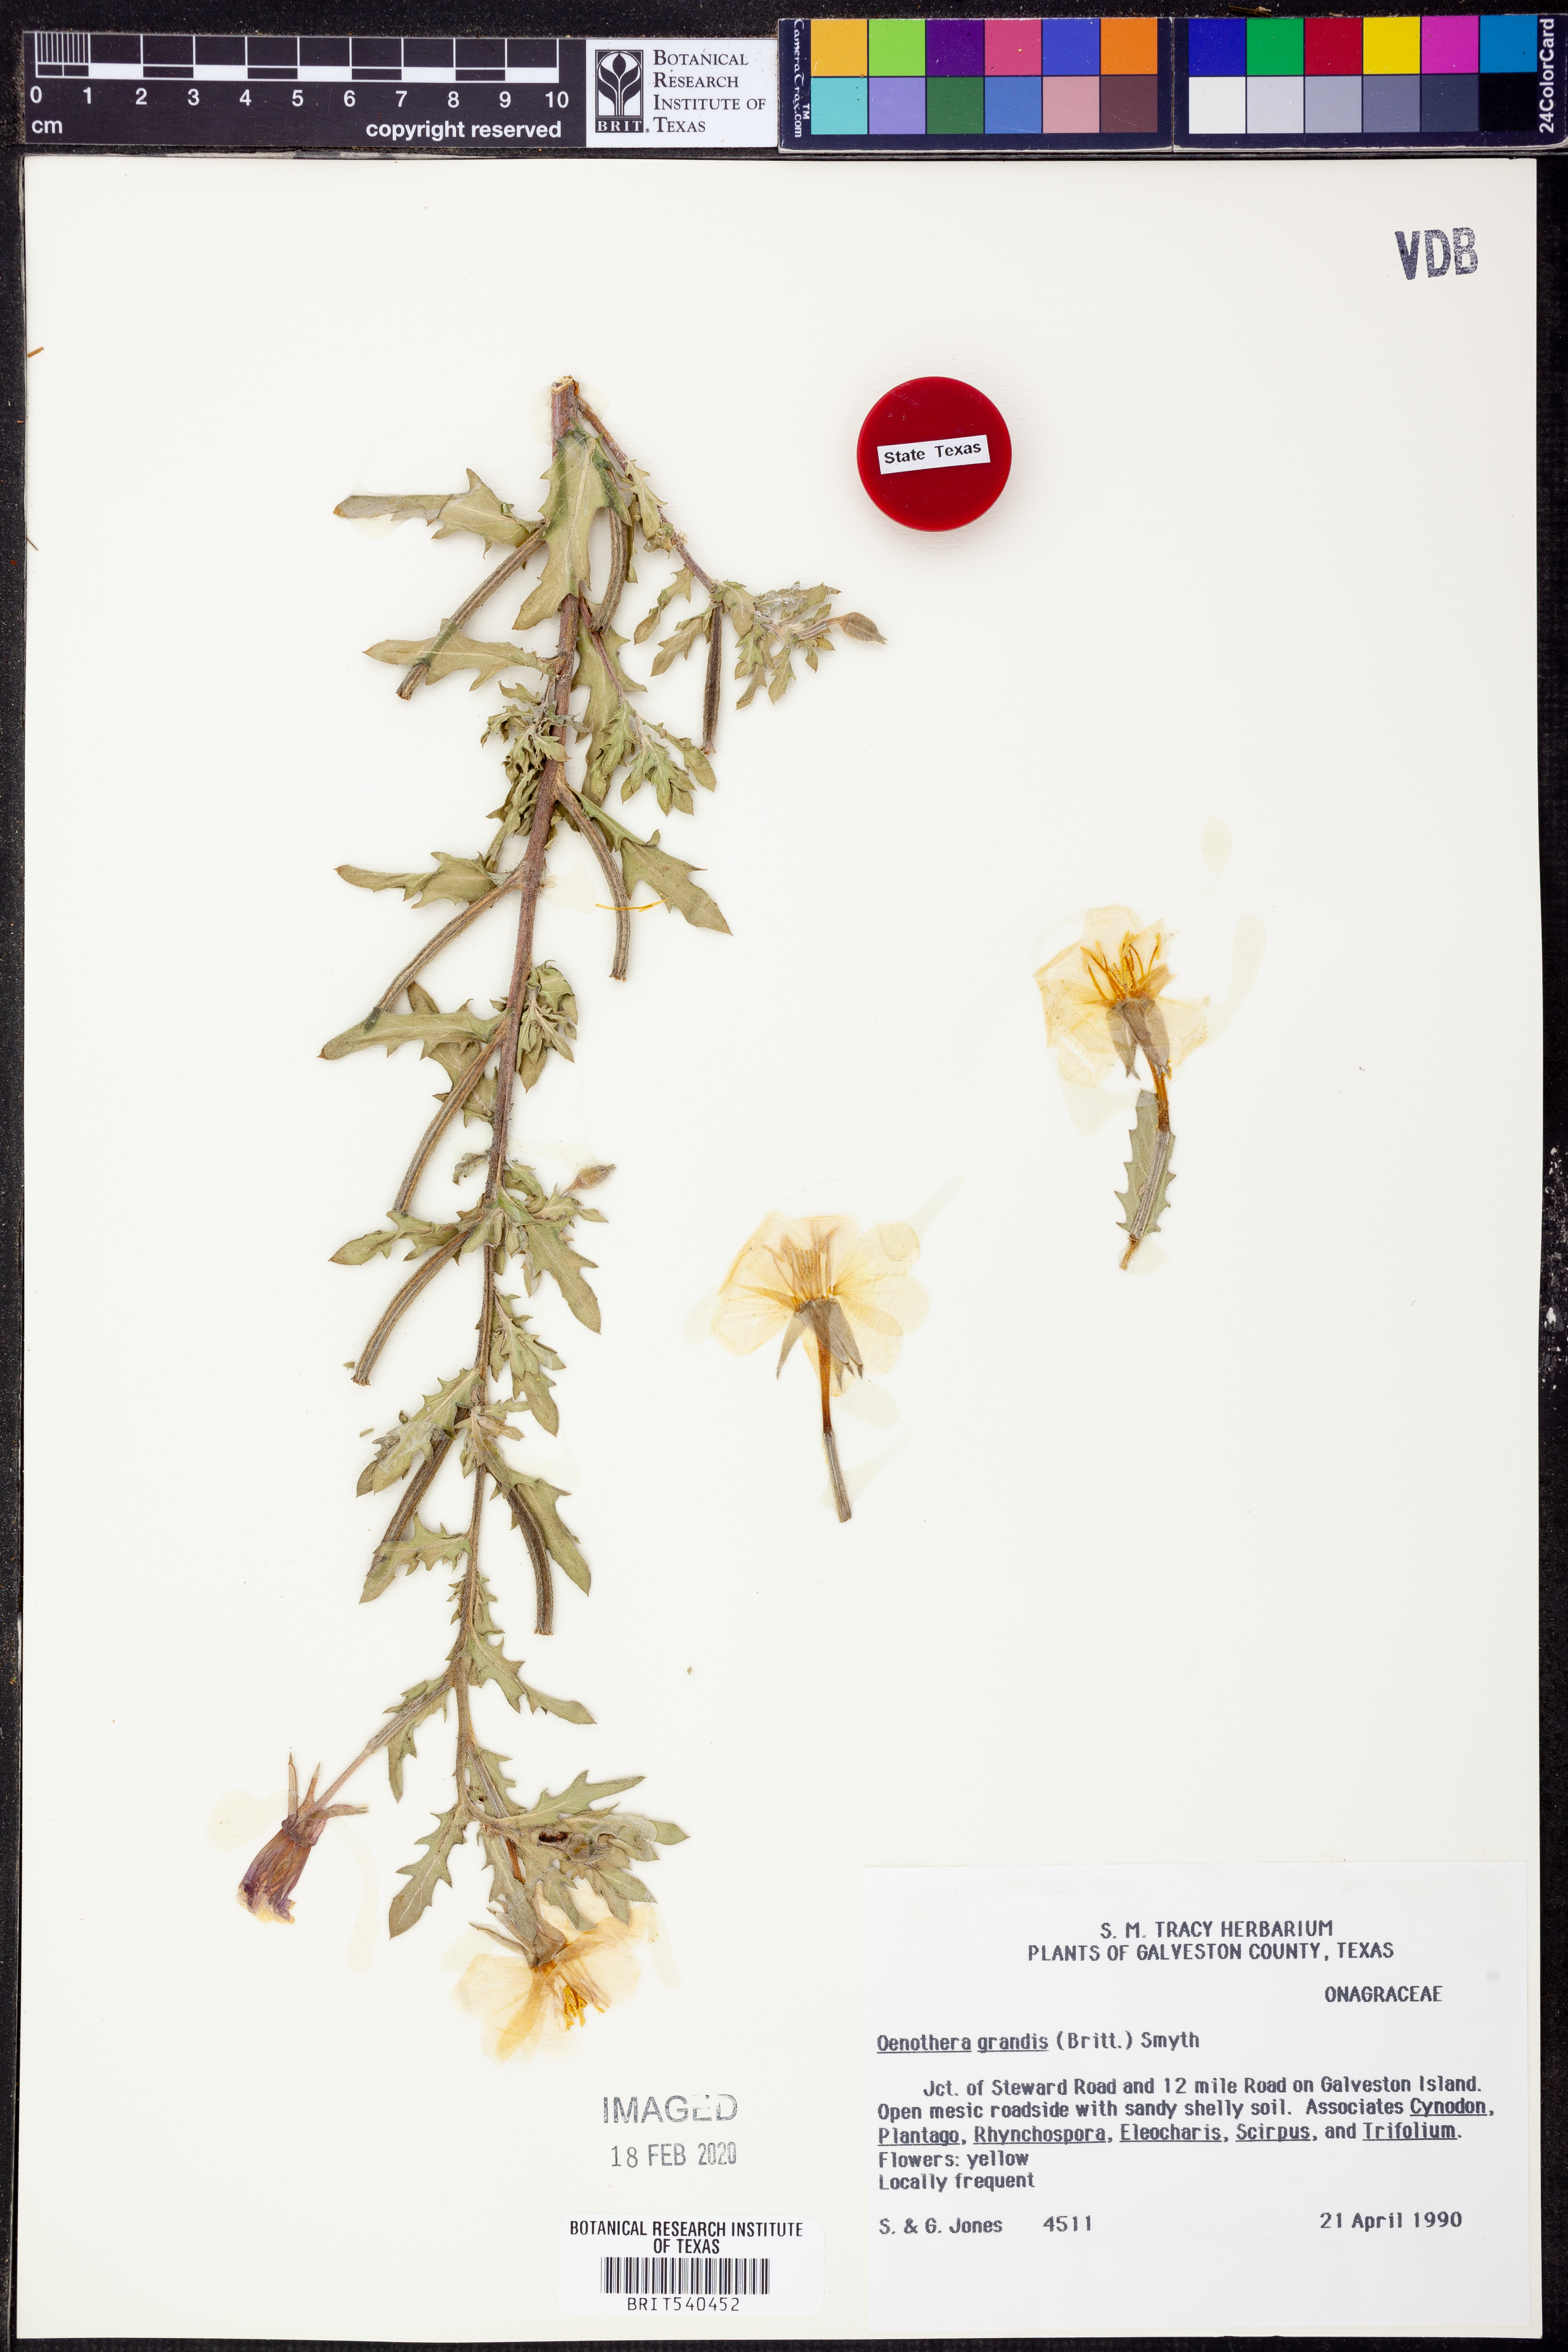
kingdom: Plantae
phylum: Tracheophyta
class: Magnoliopsida
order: Myrtales
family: Onagraceae
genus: Oenothera
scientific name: Oenothera grandis
